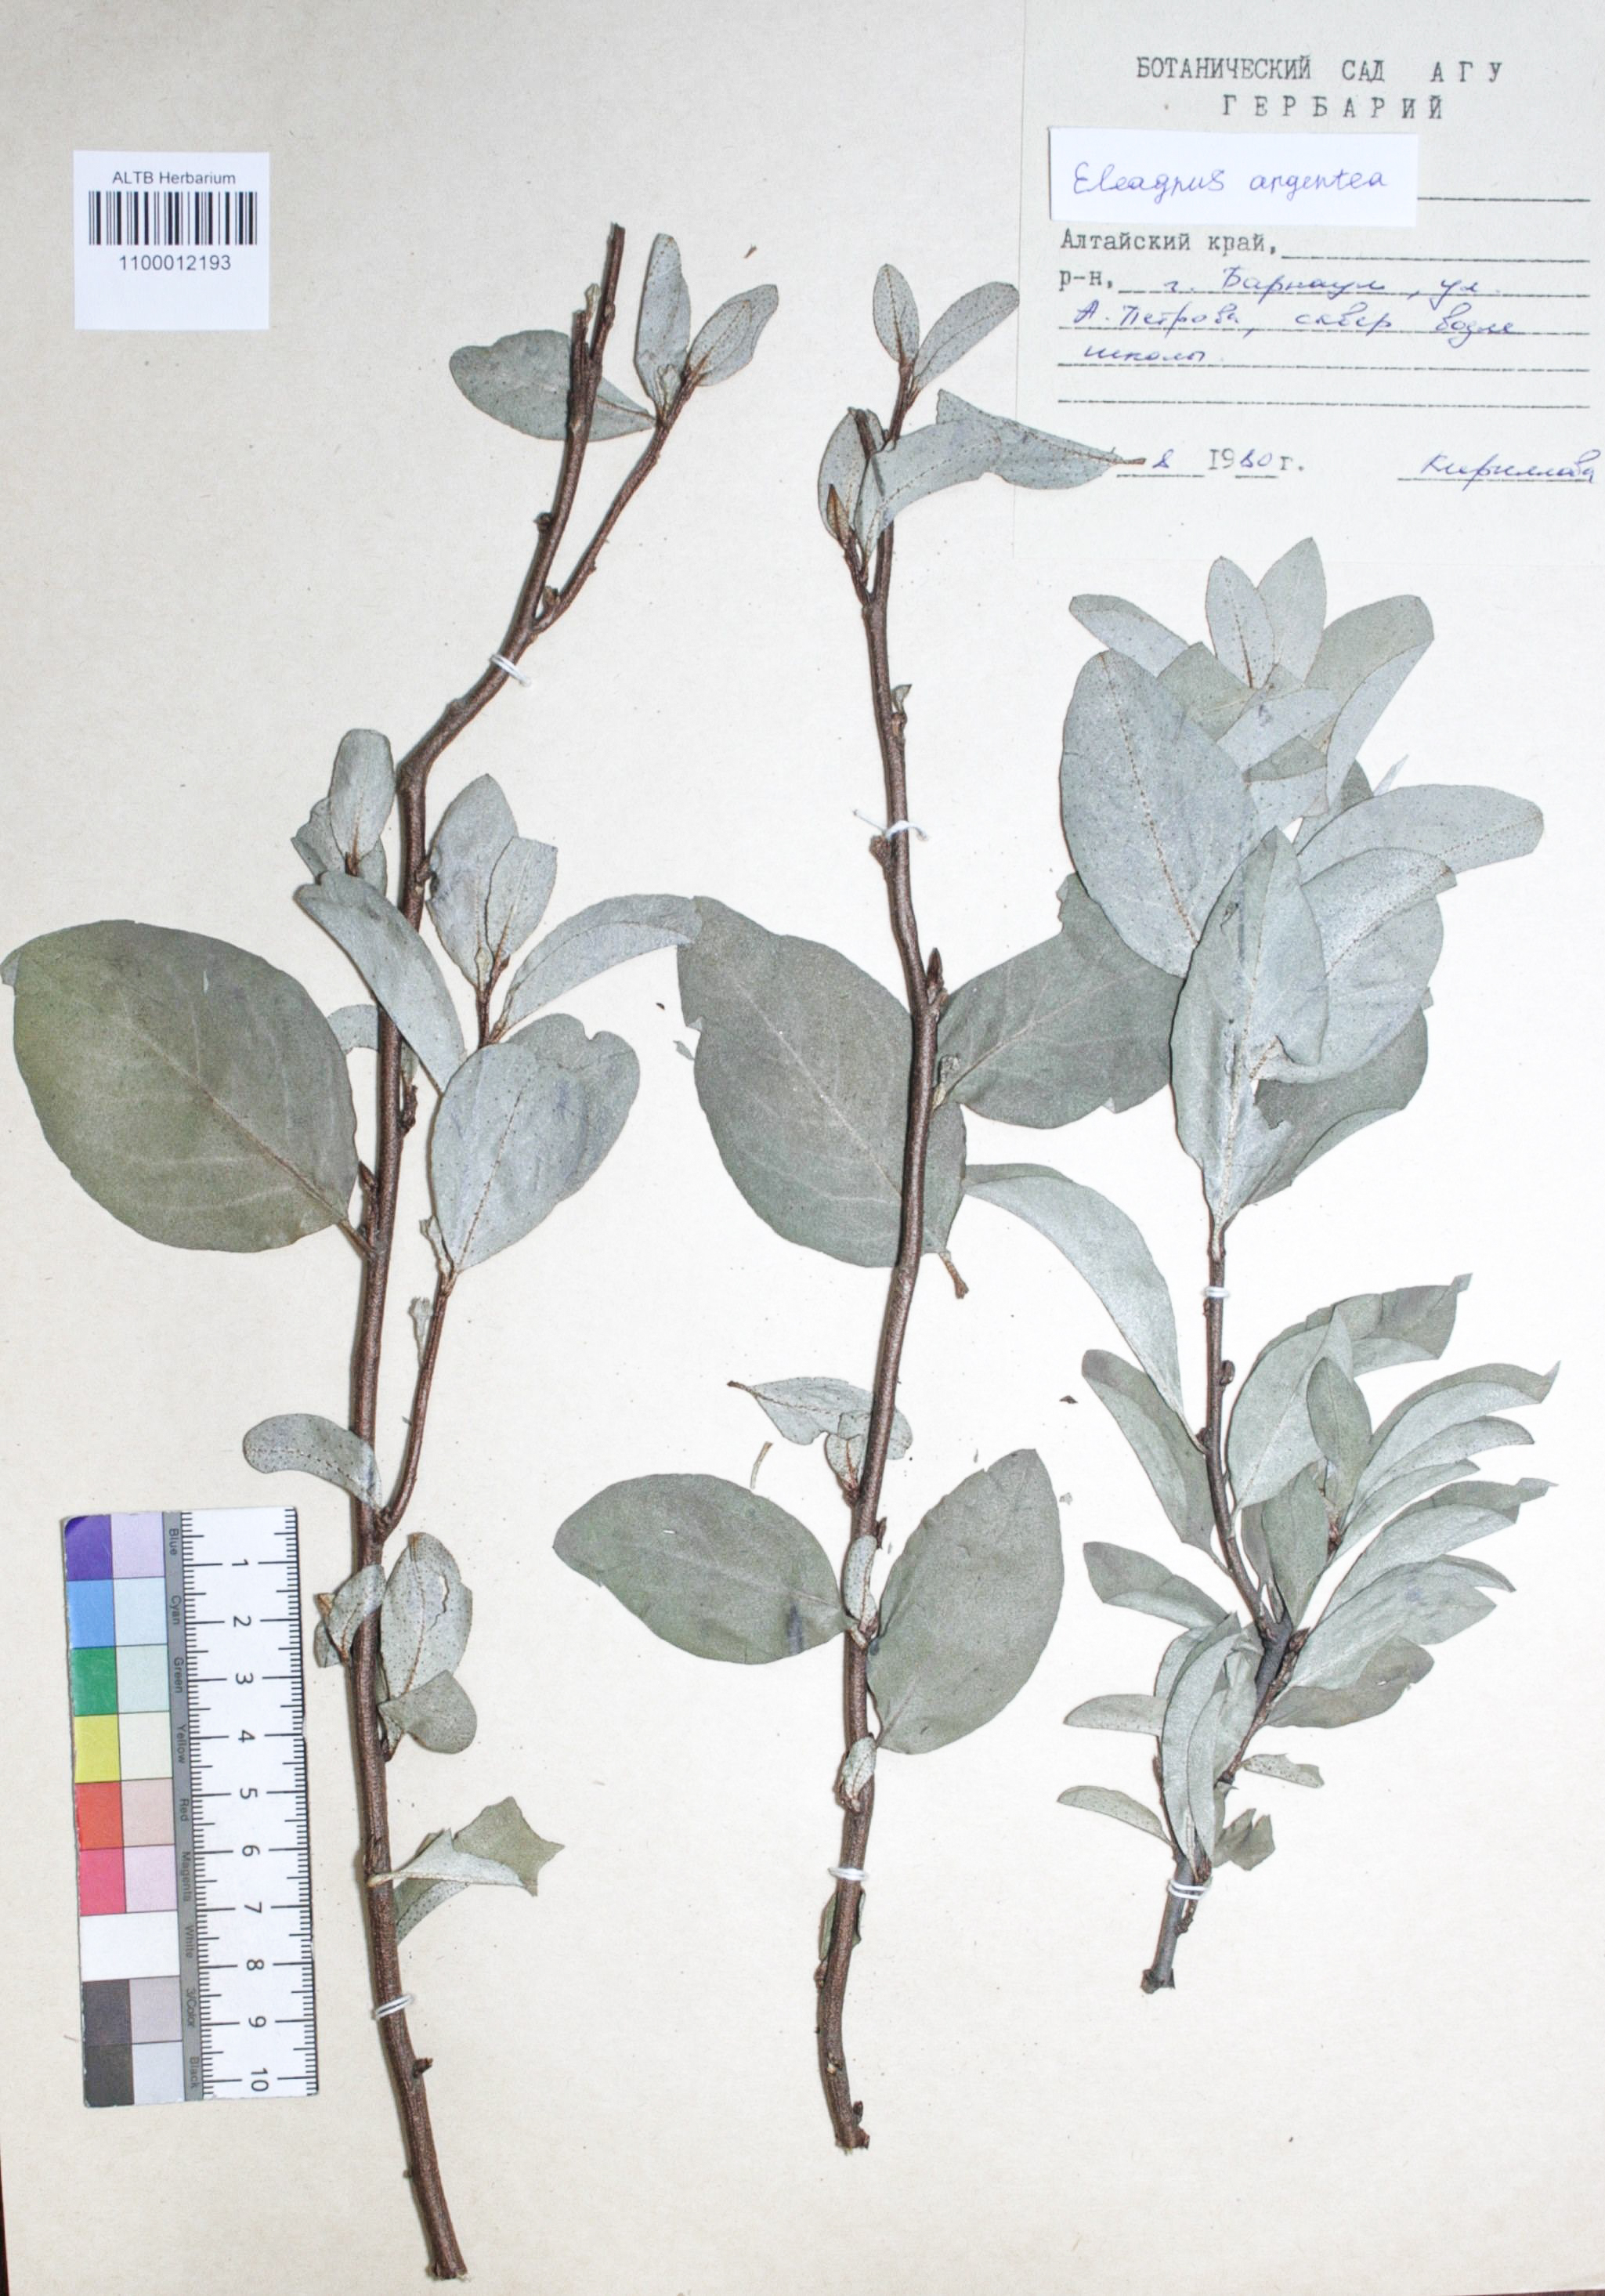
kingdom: Plantae
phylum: Tracheophyta
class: Magnoliopsida
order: Rosales
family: Elaeagnaceae
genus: Elaeagnus
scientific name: Elaeagnus commutata
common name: Silverberry
